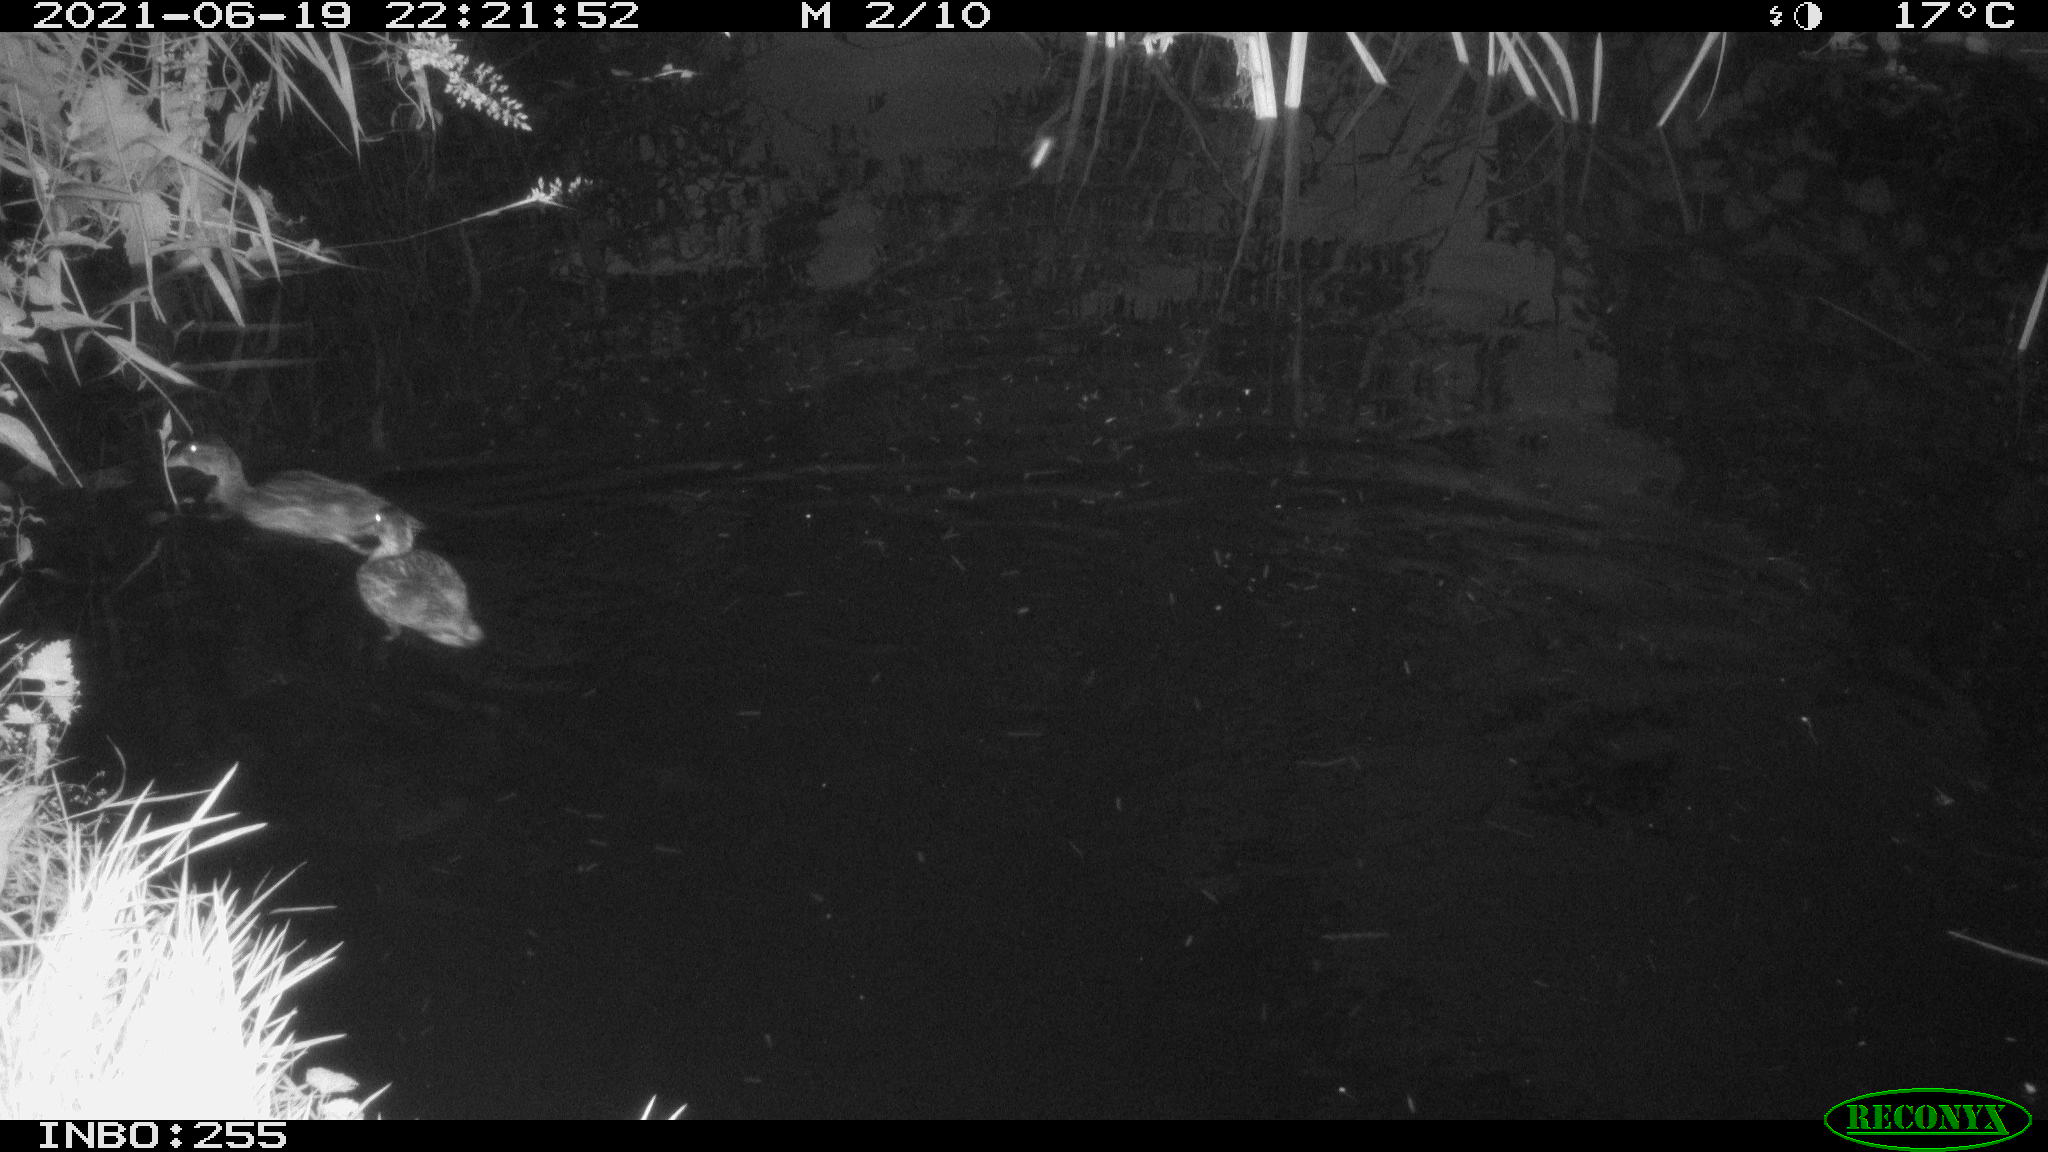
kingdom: Animalia
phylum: Chordata
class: Aves
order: Anseriformes
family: Anatidae
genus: Anas
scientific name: Anas
